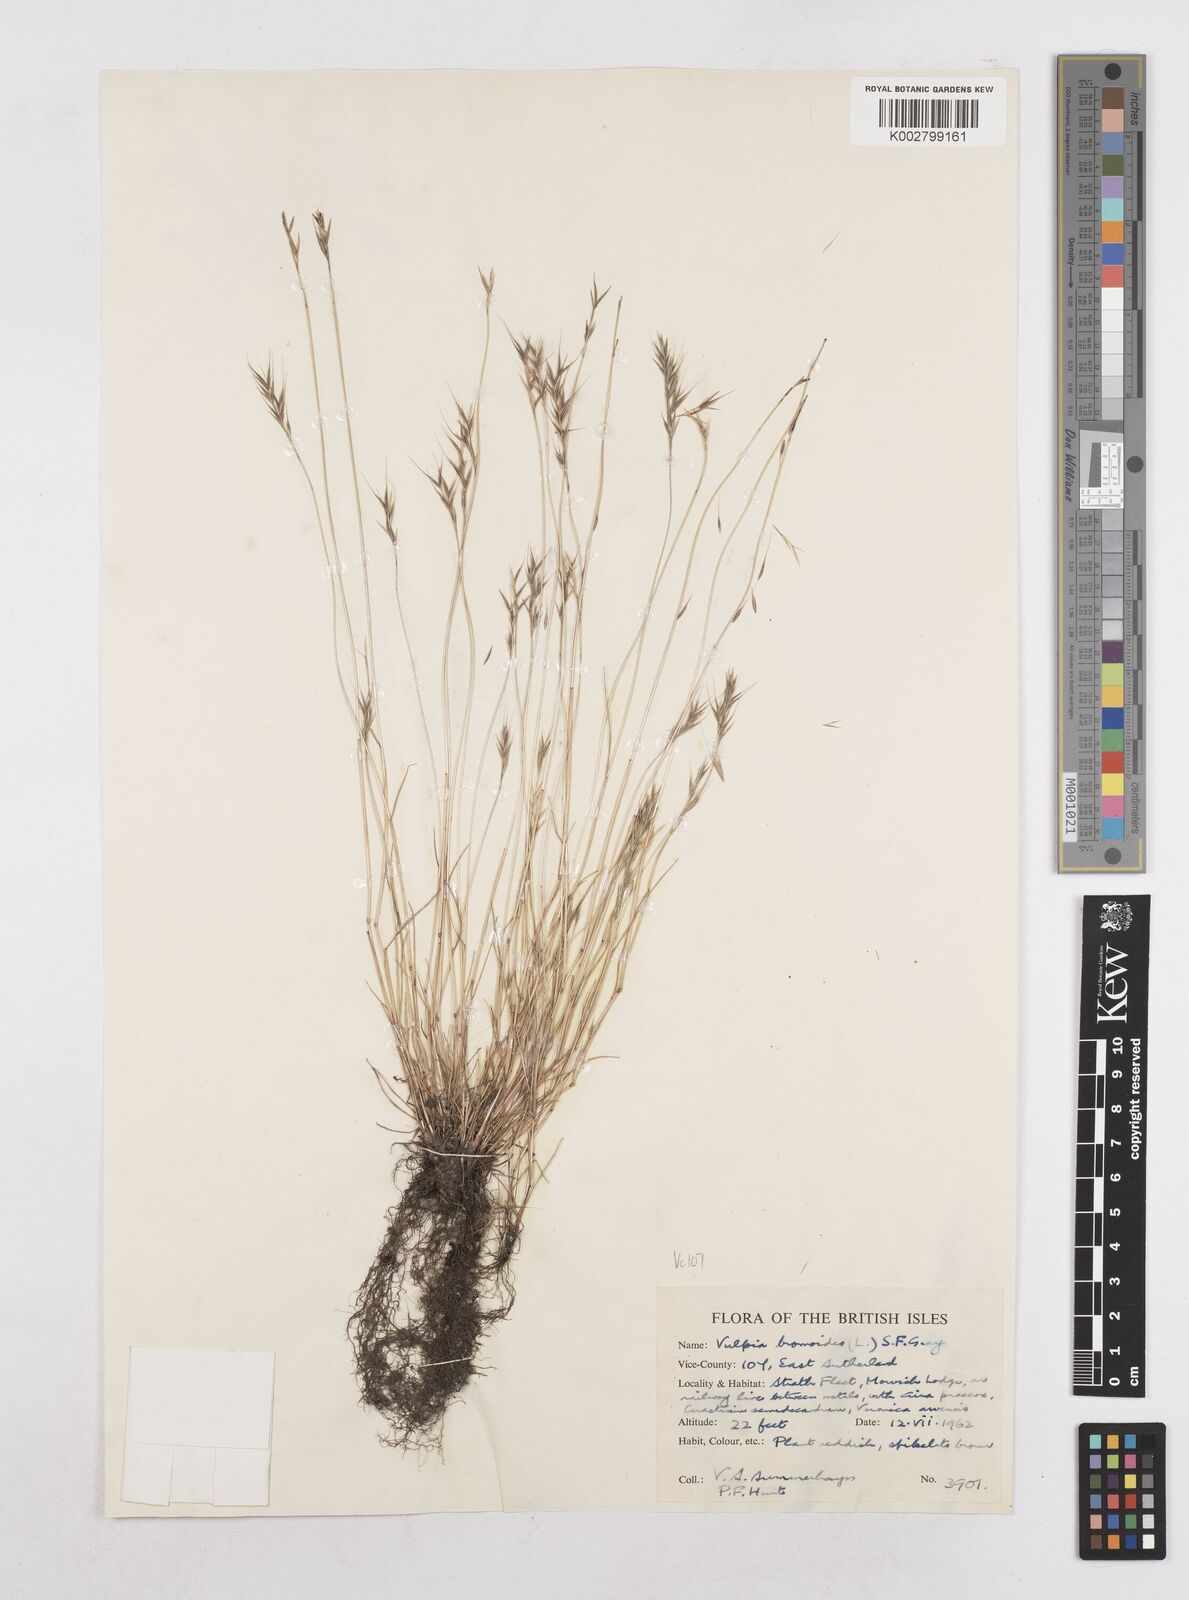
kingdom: Plantae
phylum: Tracheophyta
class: Liliopsida
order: Poales
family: Poaceae
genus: Festuca
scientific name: Festuca bromoides
